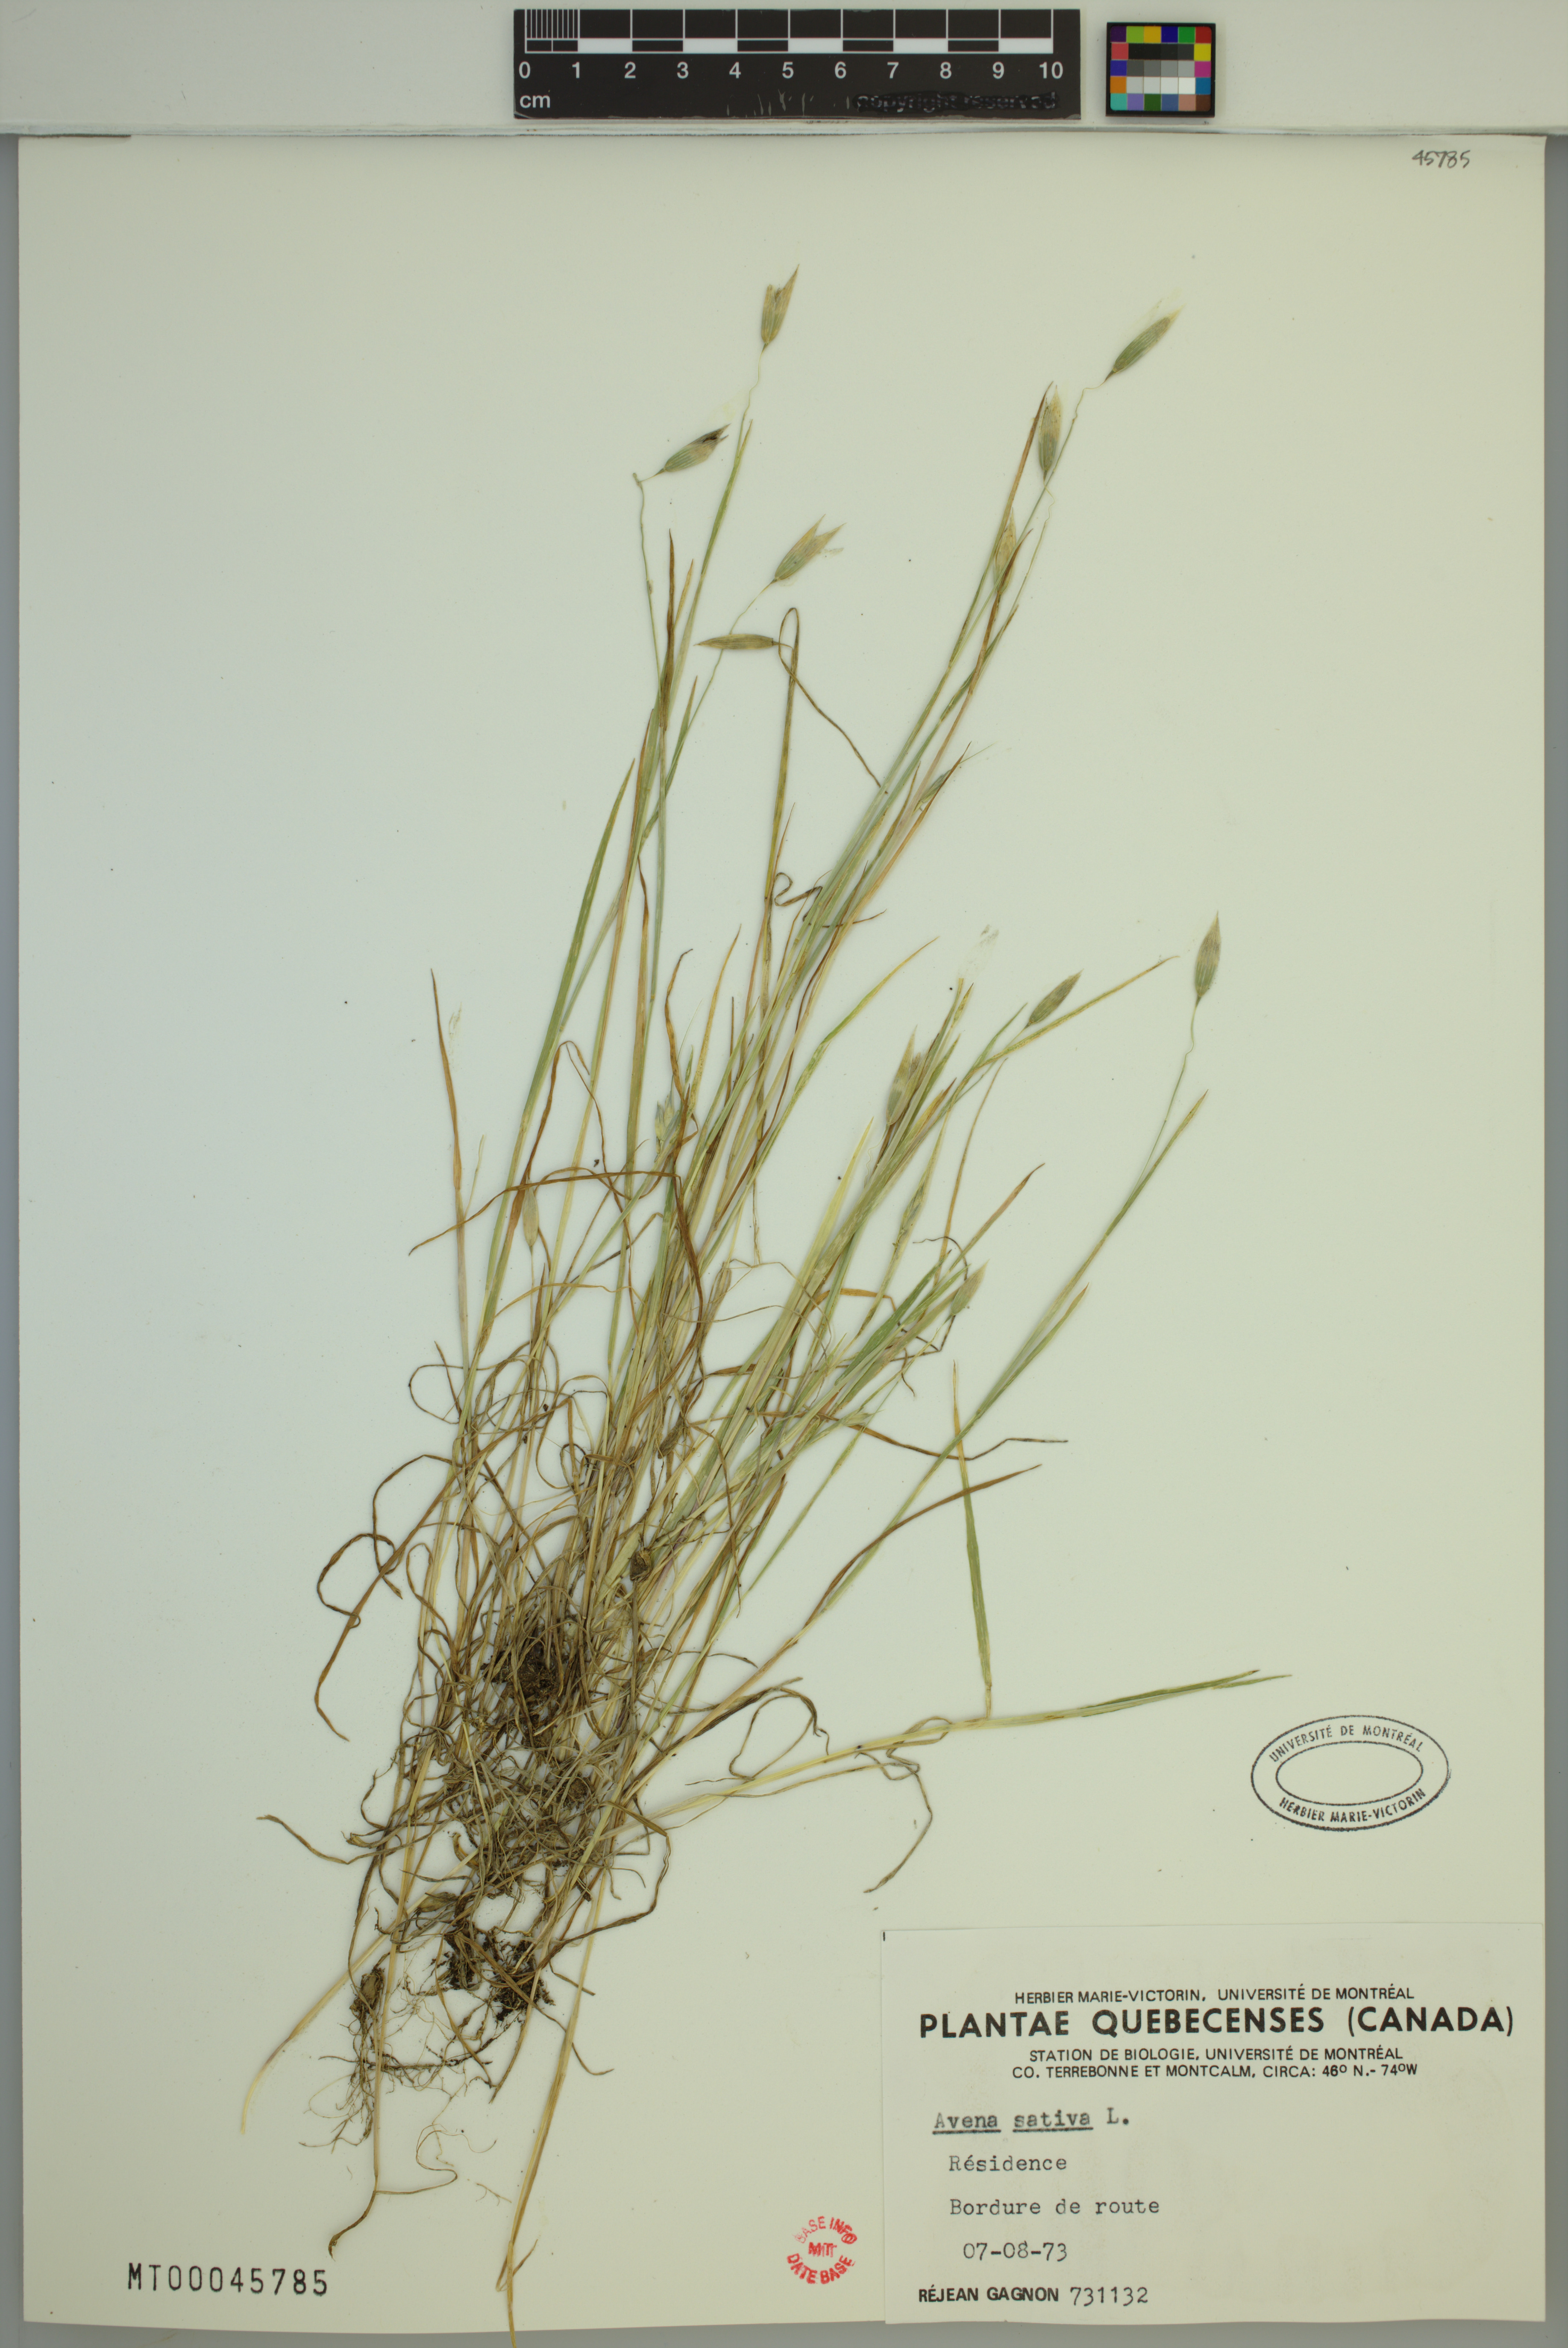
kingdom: Plantae
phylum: Tracheophyta
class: Liliopsida
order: Poales
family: Poaceae
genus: Avena
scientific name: Avena sativa
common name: Oat
